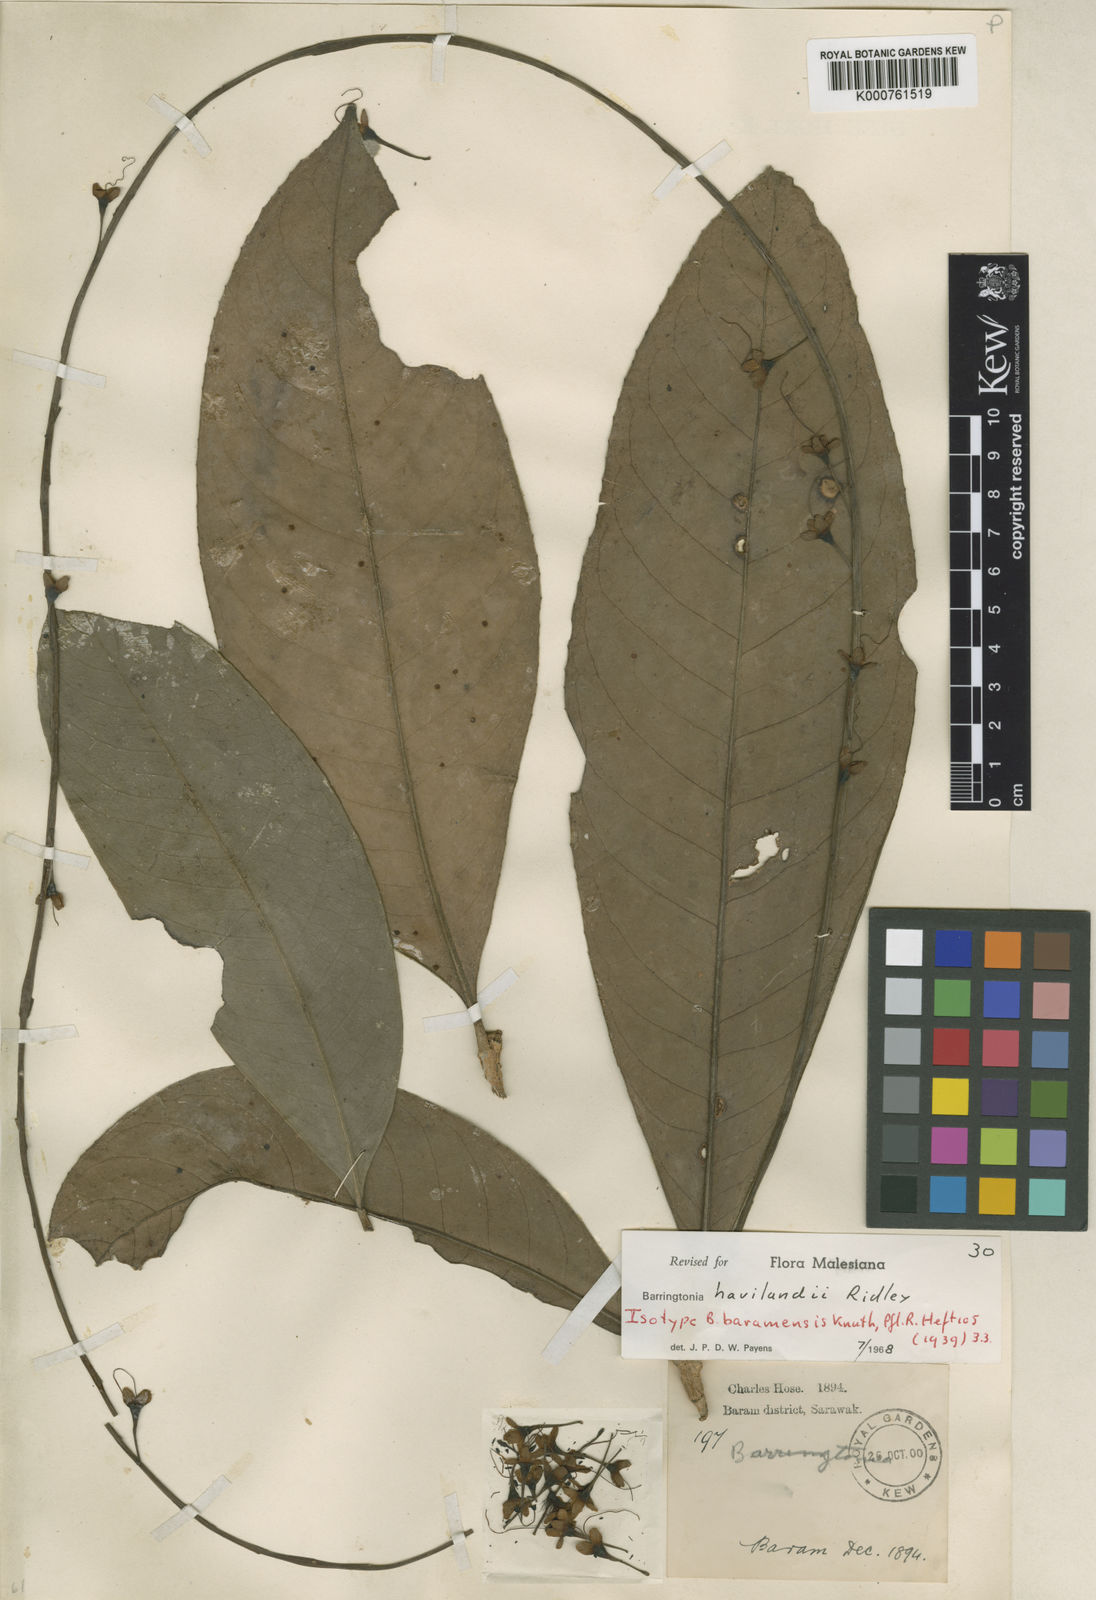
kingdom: Plantae
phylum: Tracheophyta
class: Magnoliopsida
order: Ericales
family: Lecythidaceae
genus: Barringtonia
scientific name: Barringtonia havilandii
